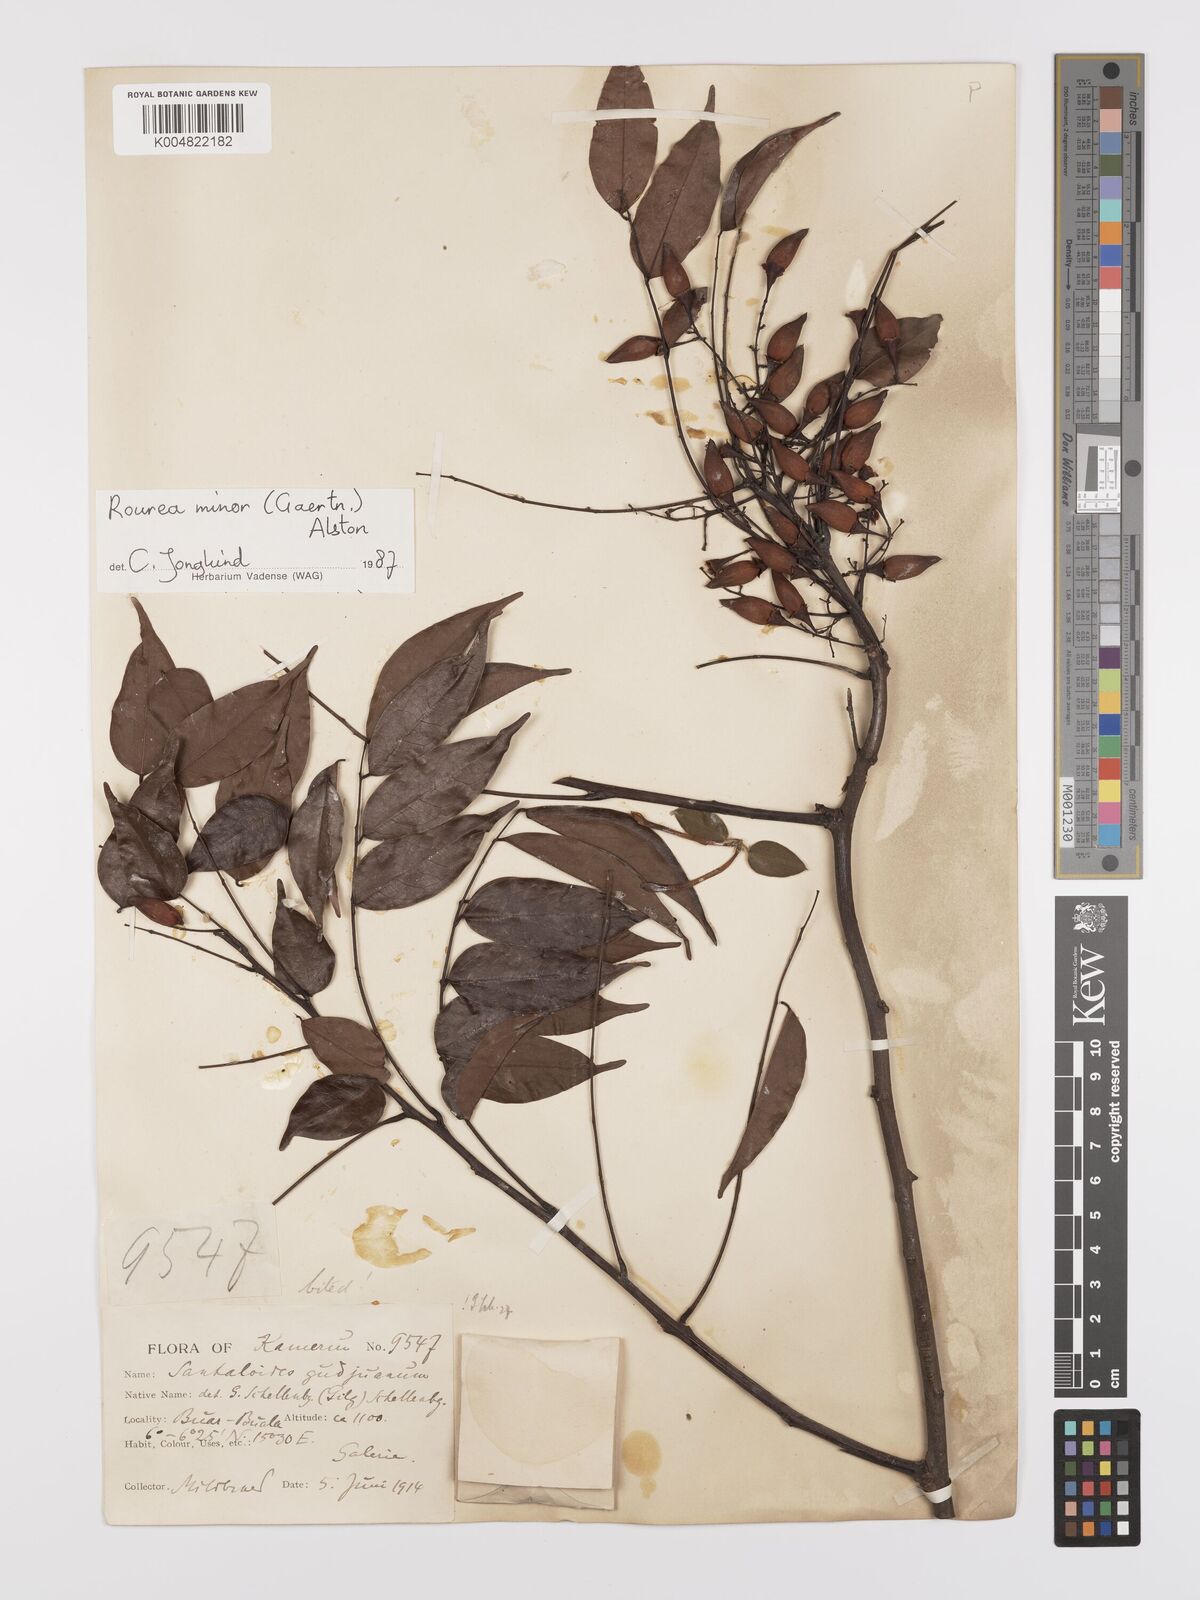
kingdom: Plantae
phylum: Tracheophyta
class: Magnoliopsida
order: Oxalidales
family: Connaraceae
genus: Rourea
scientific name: Rourea minor
